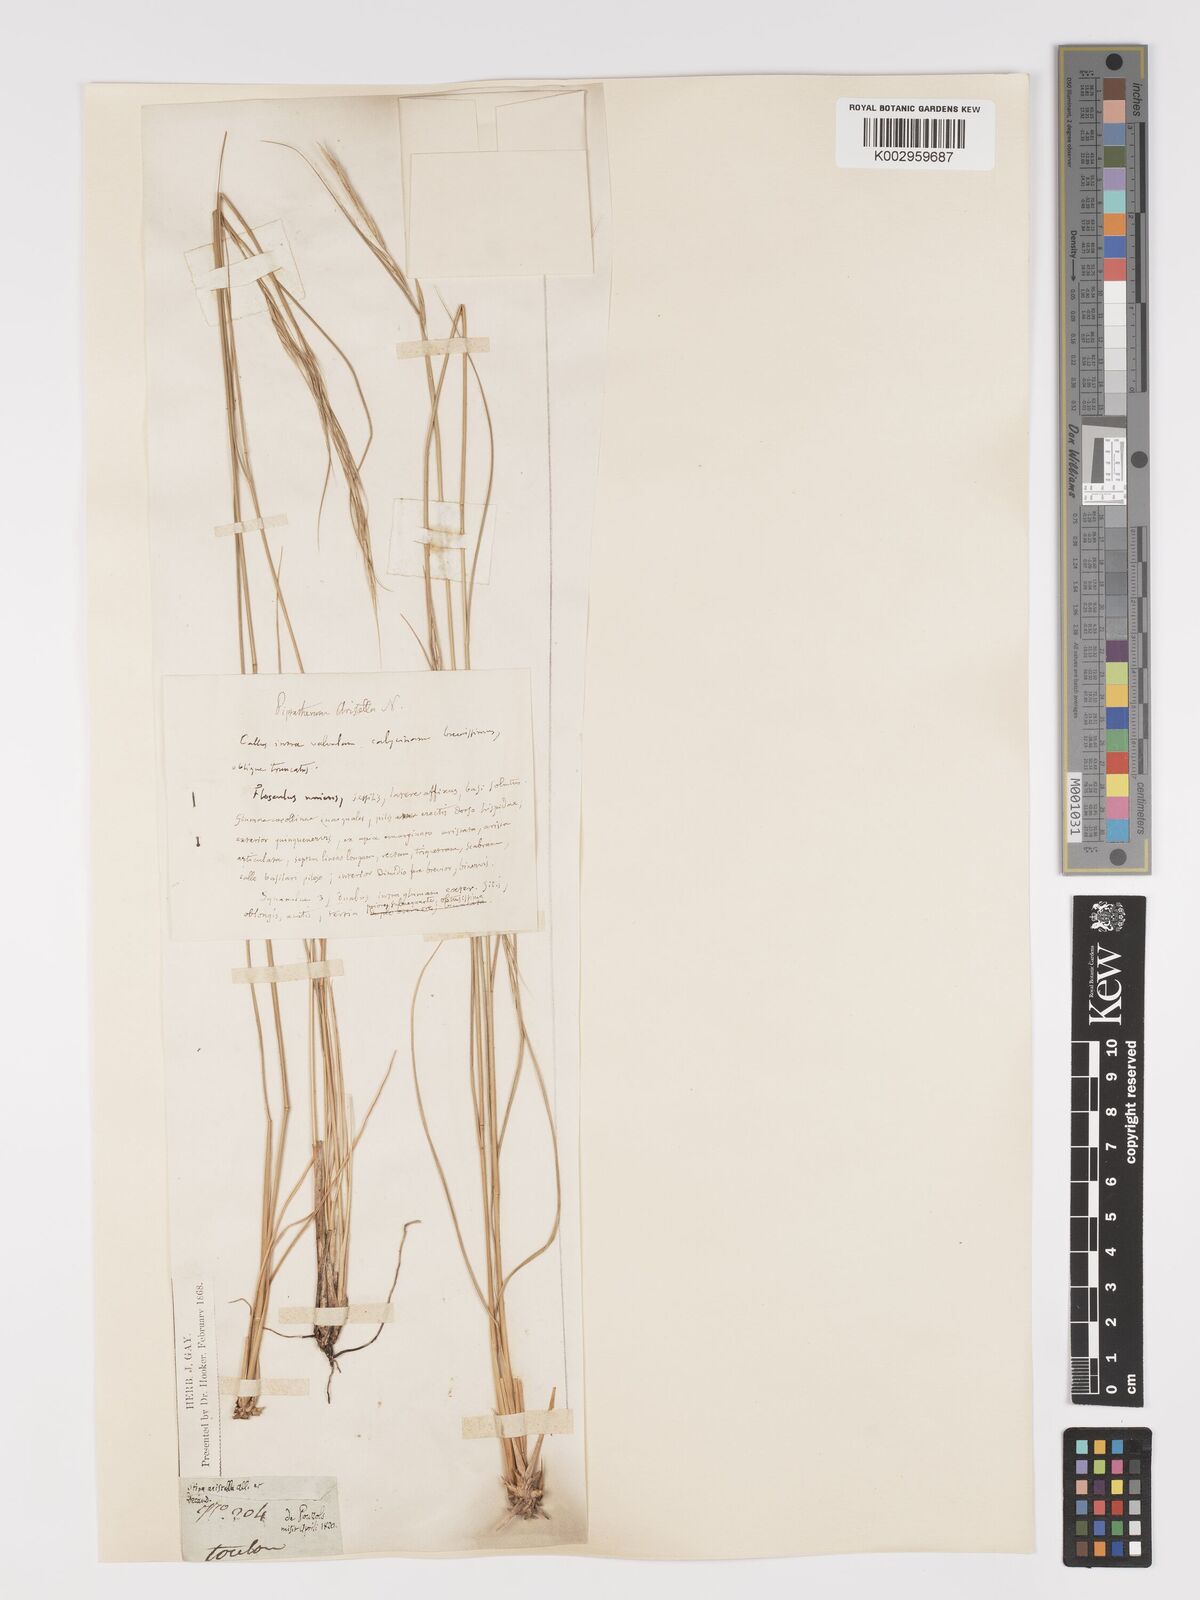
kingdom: Plantae
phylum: Tracheophyta
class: Liliopsida
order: Poales
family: Poaceae
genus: Achnatherum
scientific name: Achnatherum bromoides
